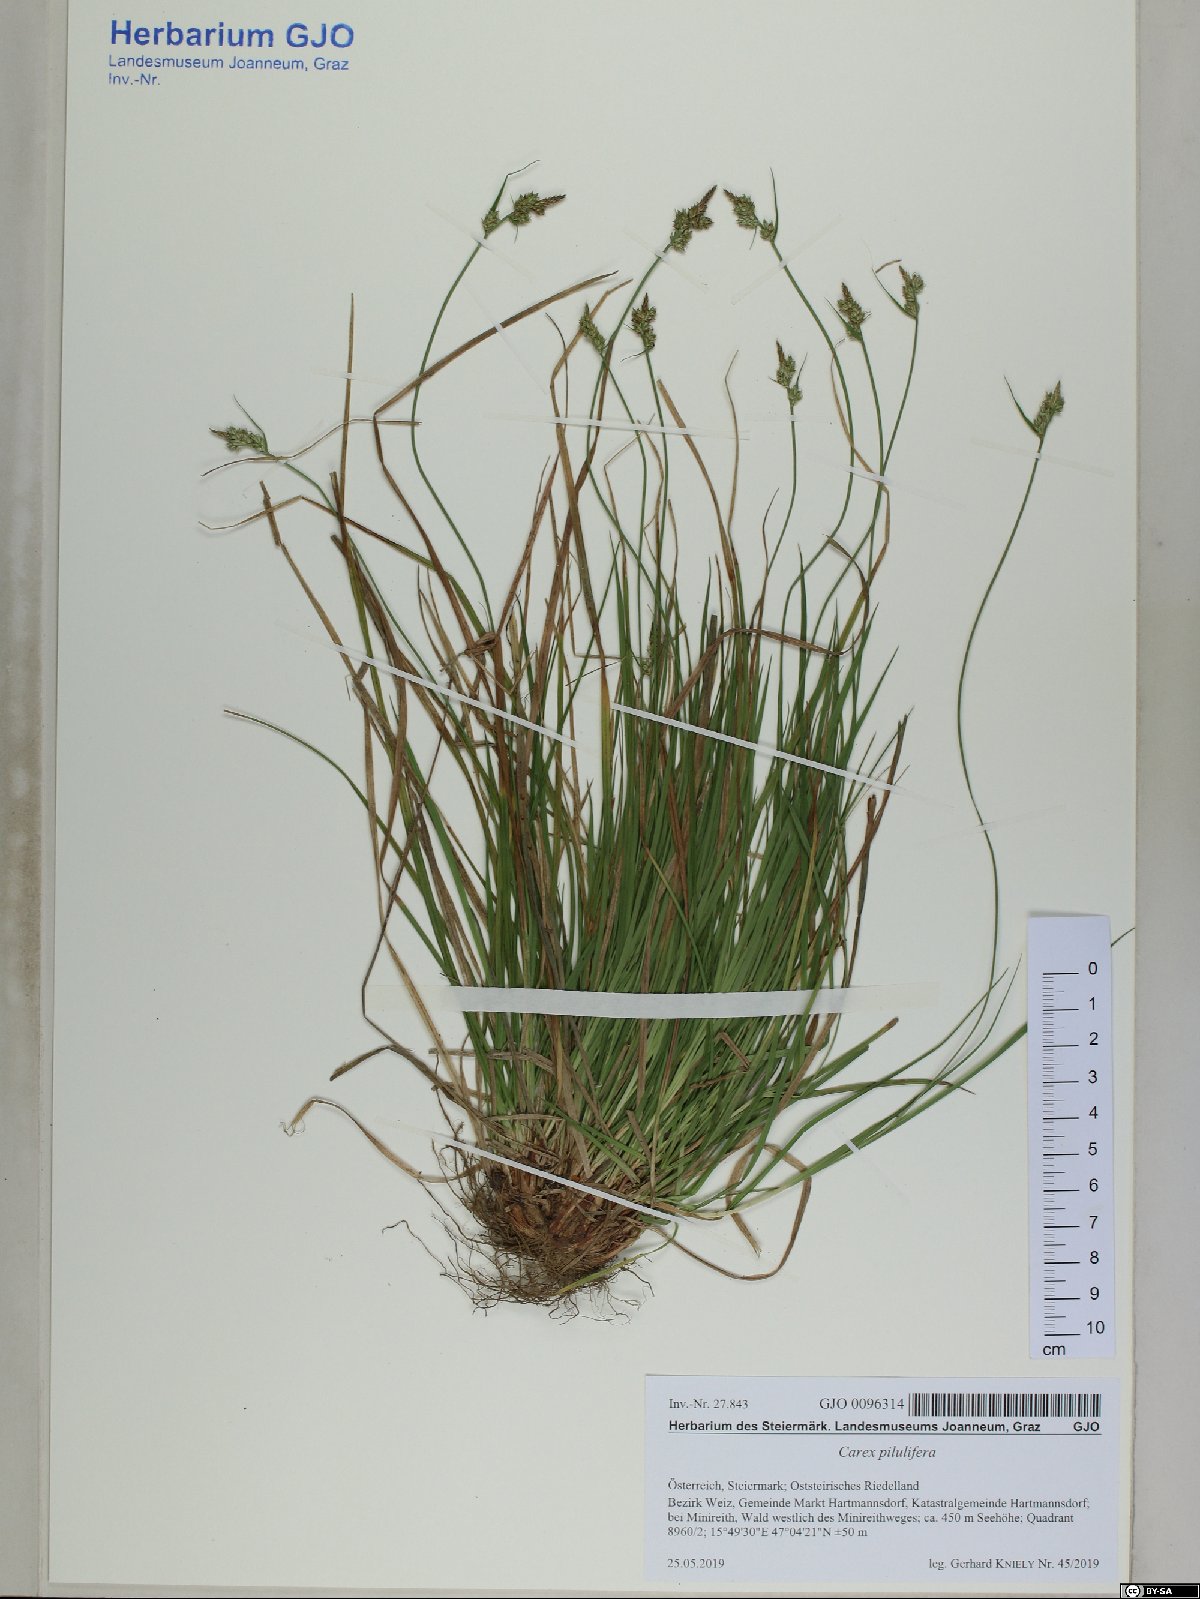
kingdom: Plantae
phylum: Tracheophyta
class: Liliopsida
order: Poales
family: Cyperaceae
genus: Carex
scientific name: Carex pilulifera
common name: Pill sedge
